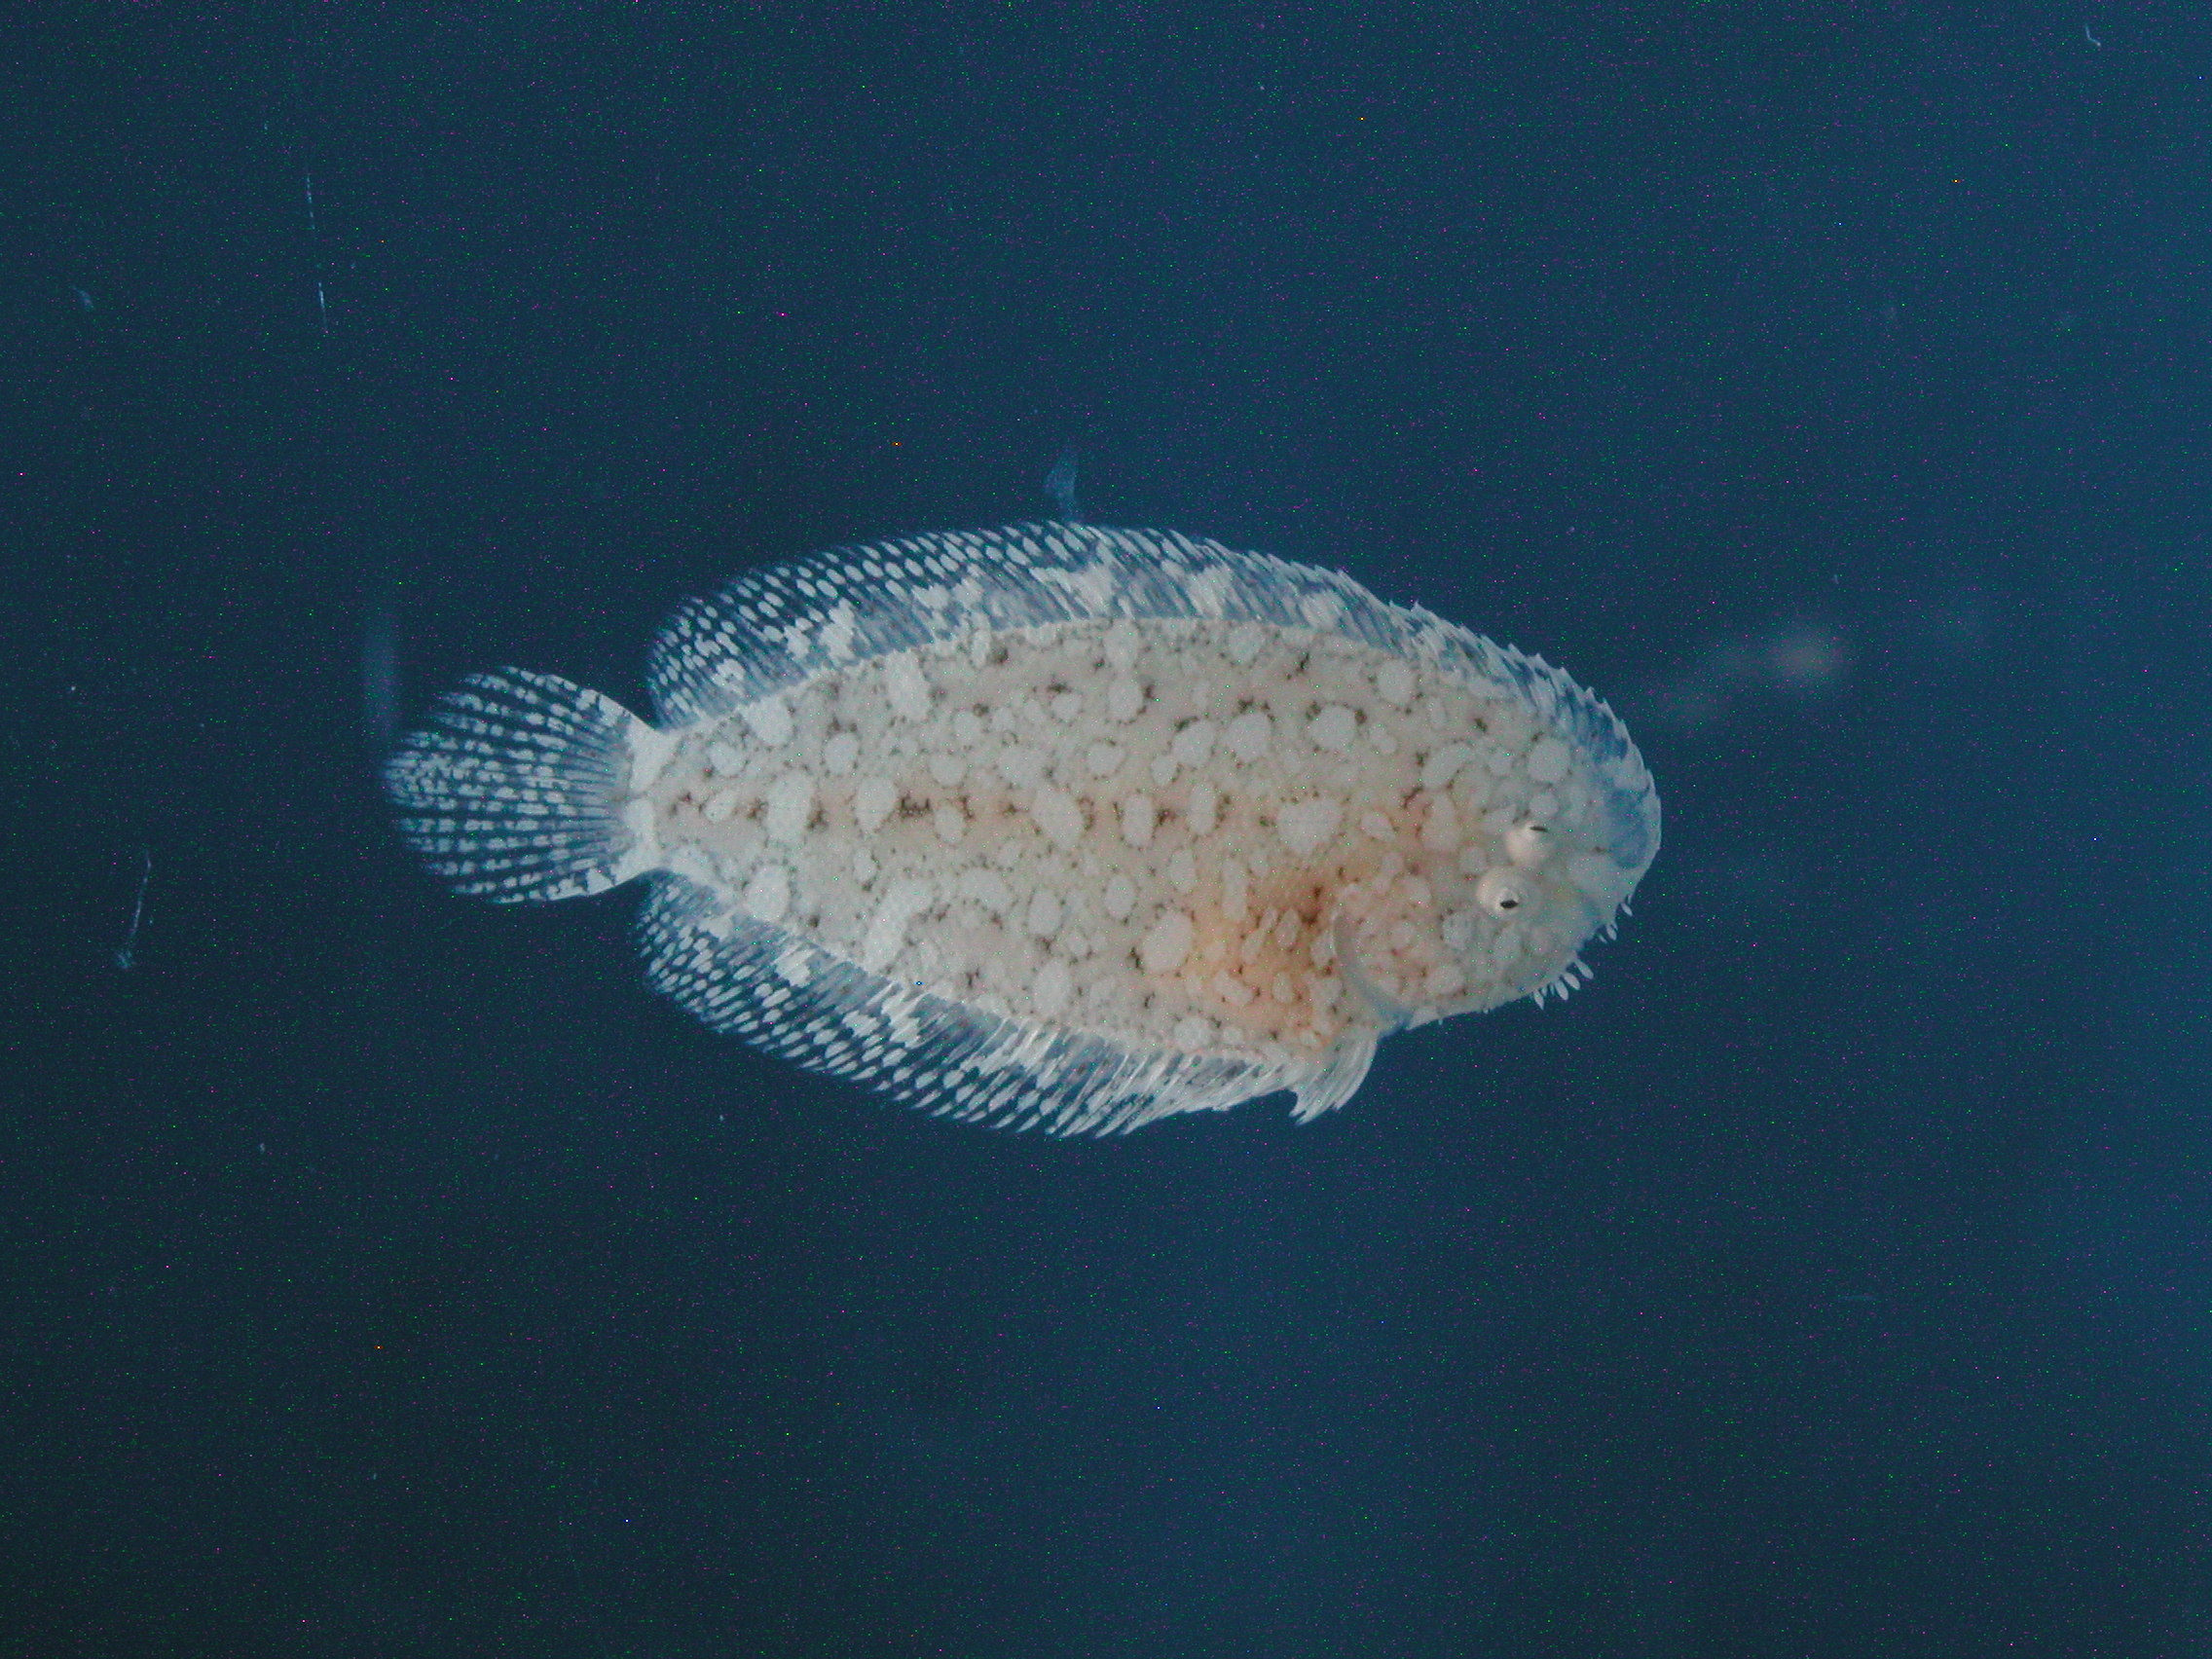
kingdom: Animalia
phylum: Chordata
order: Pleuronectiformes
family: Soleidae
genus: Aseraggodes
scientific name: Aseraggodes martine
